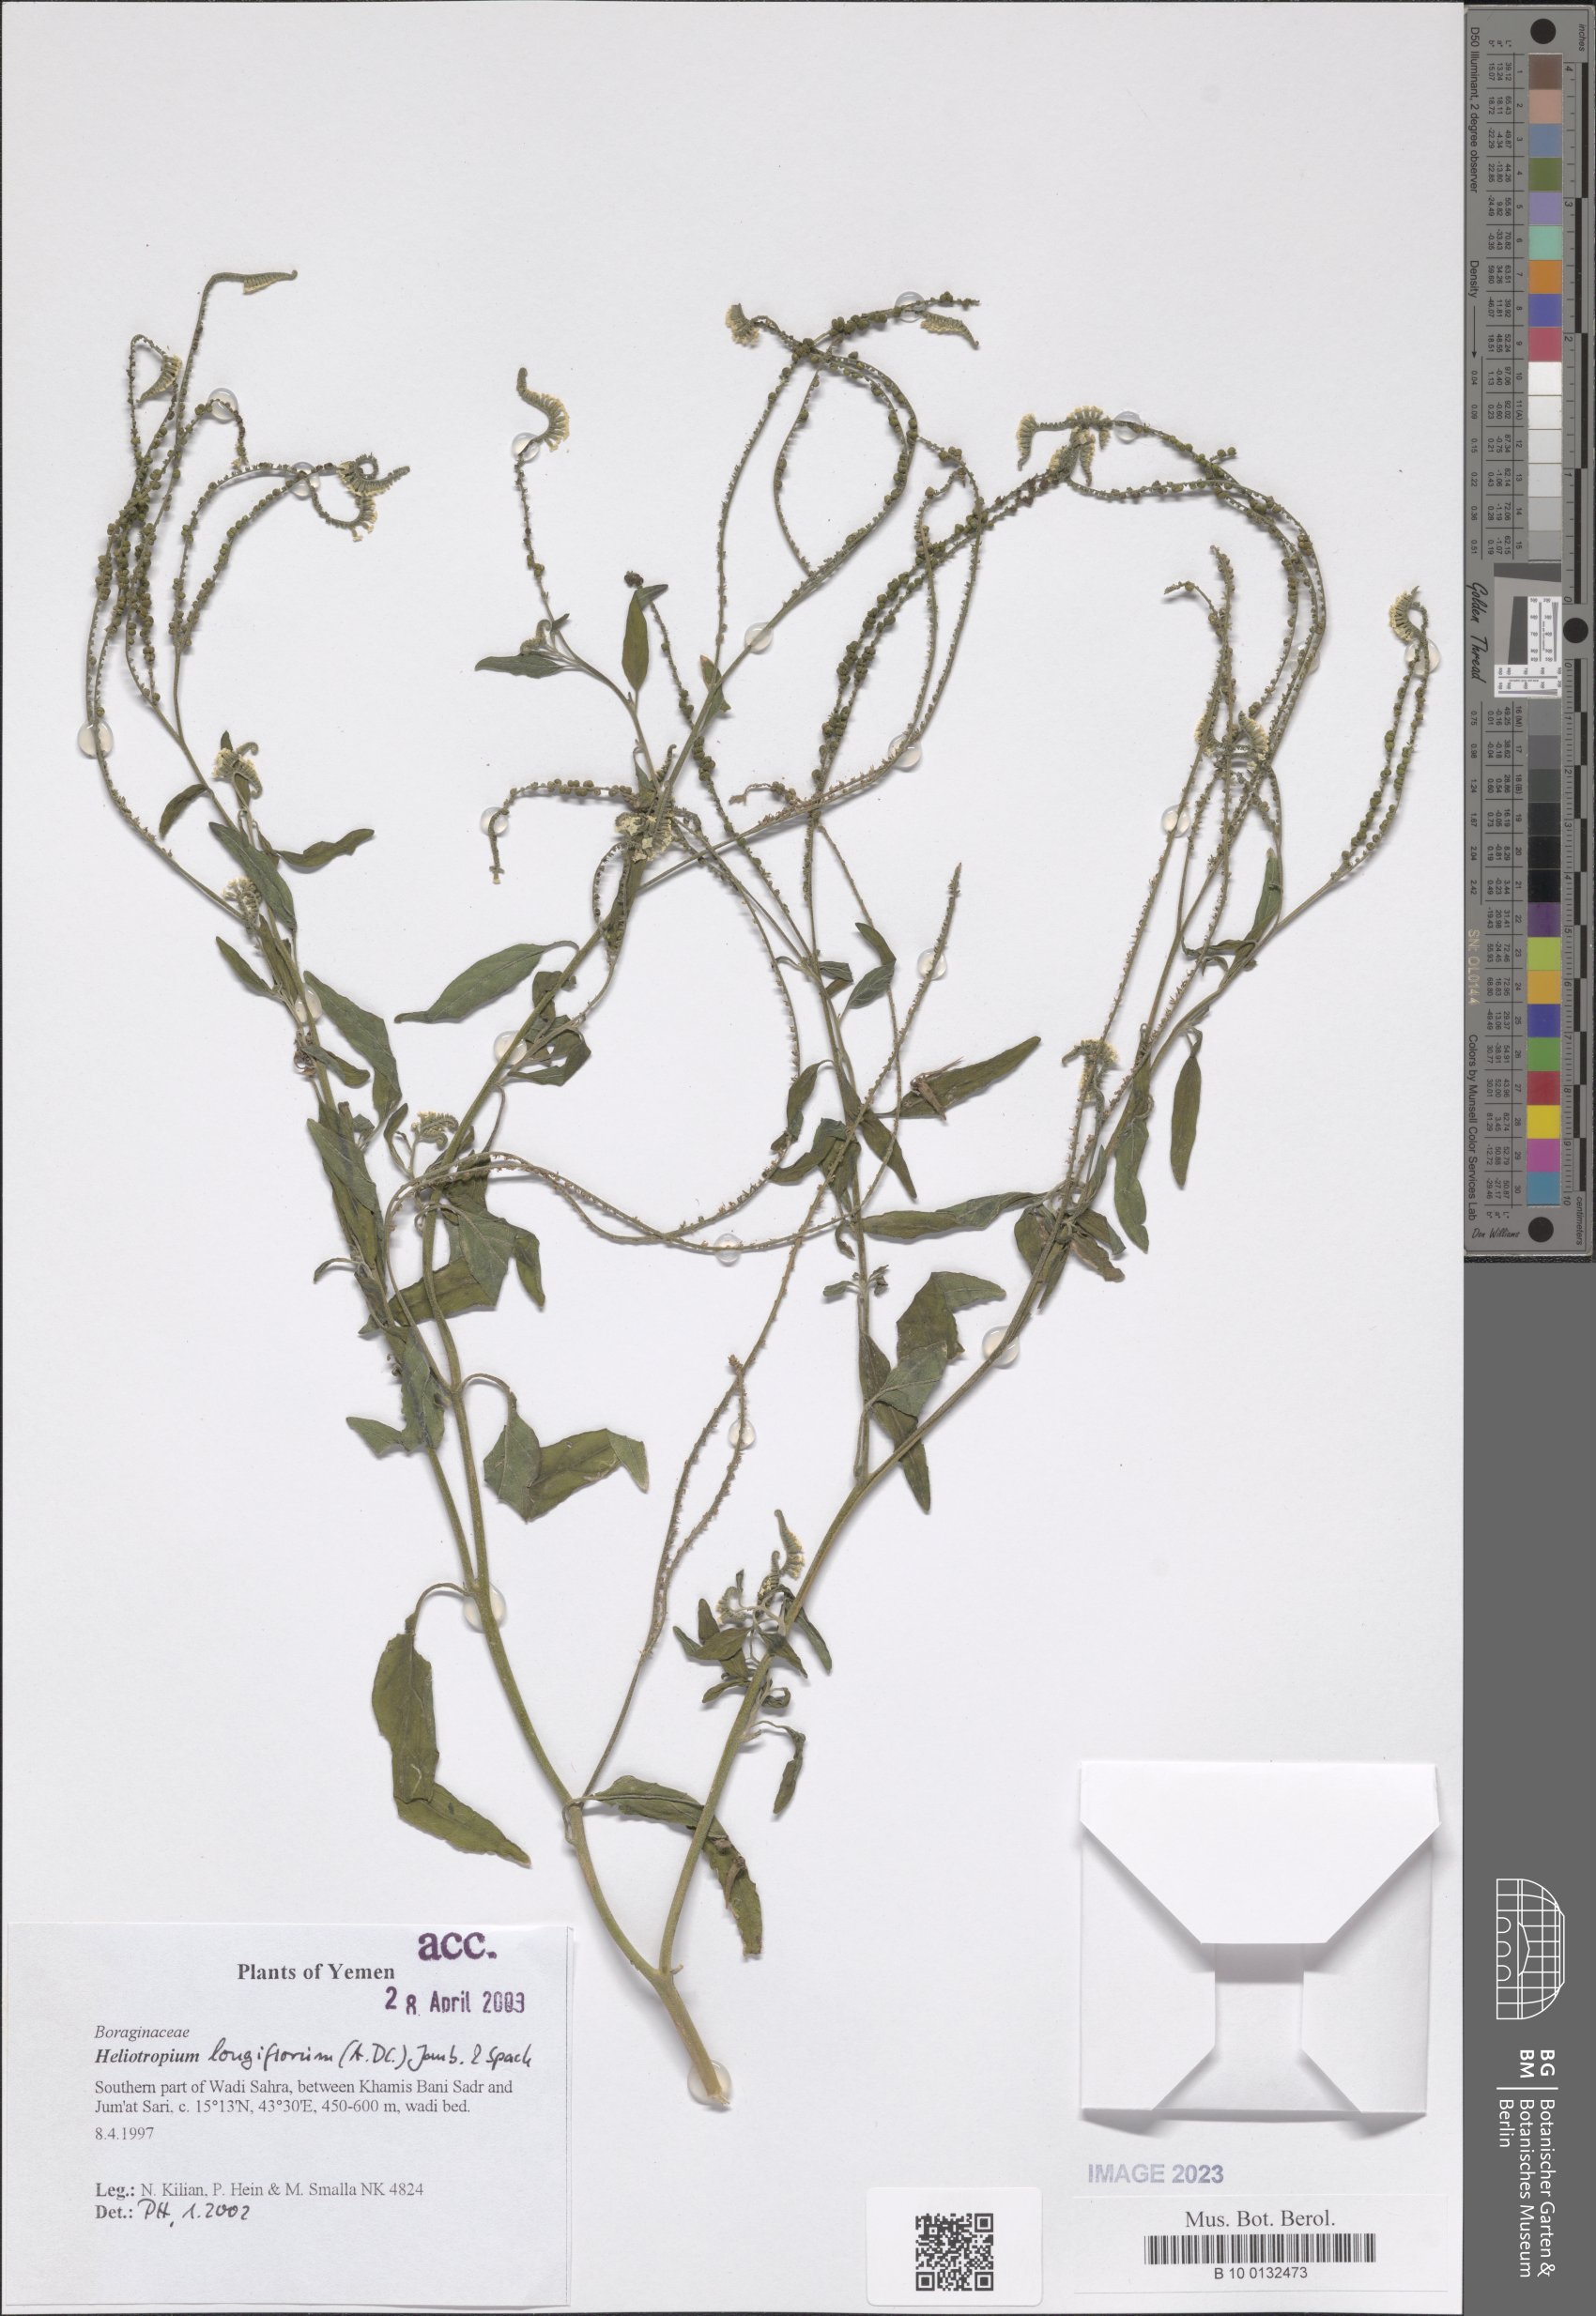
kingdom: Plantae
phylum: Tracheophyta
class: Magnoliopsida
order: Boraginales
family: Heliotropiaceae
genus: Heliotropium
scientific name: Heliotropium longiflorum
